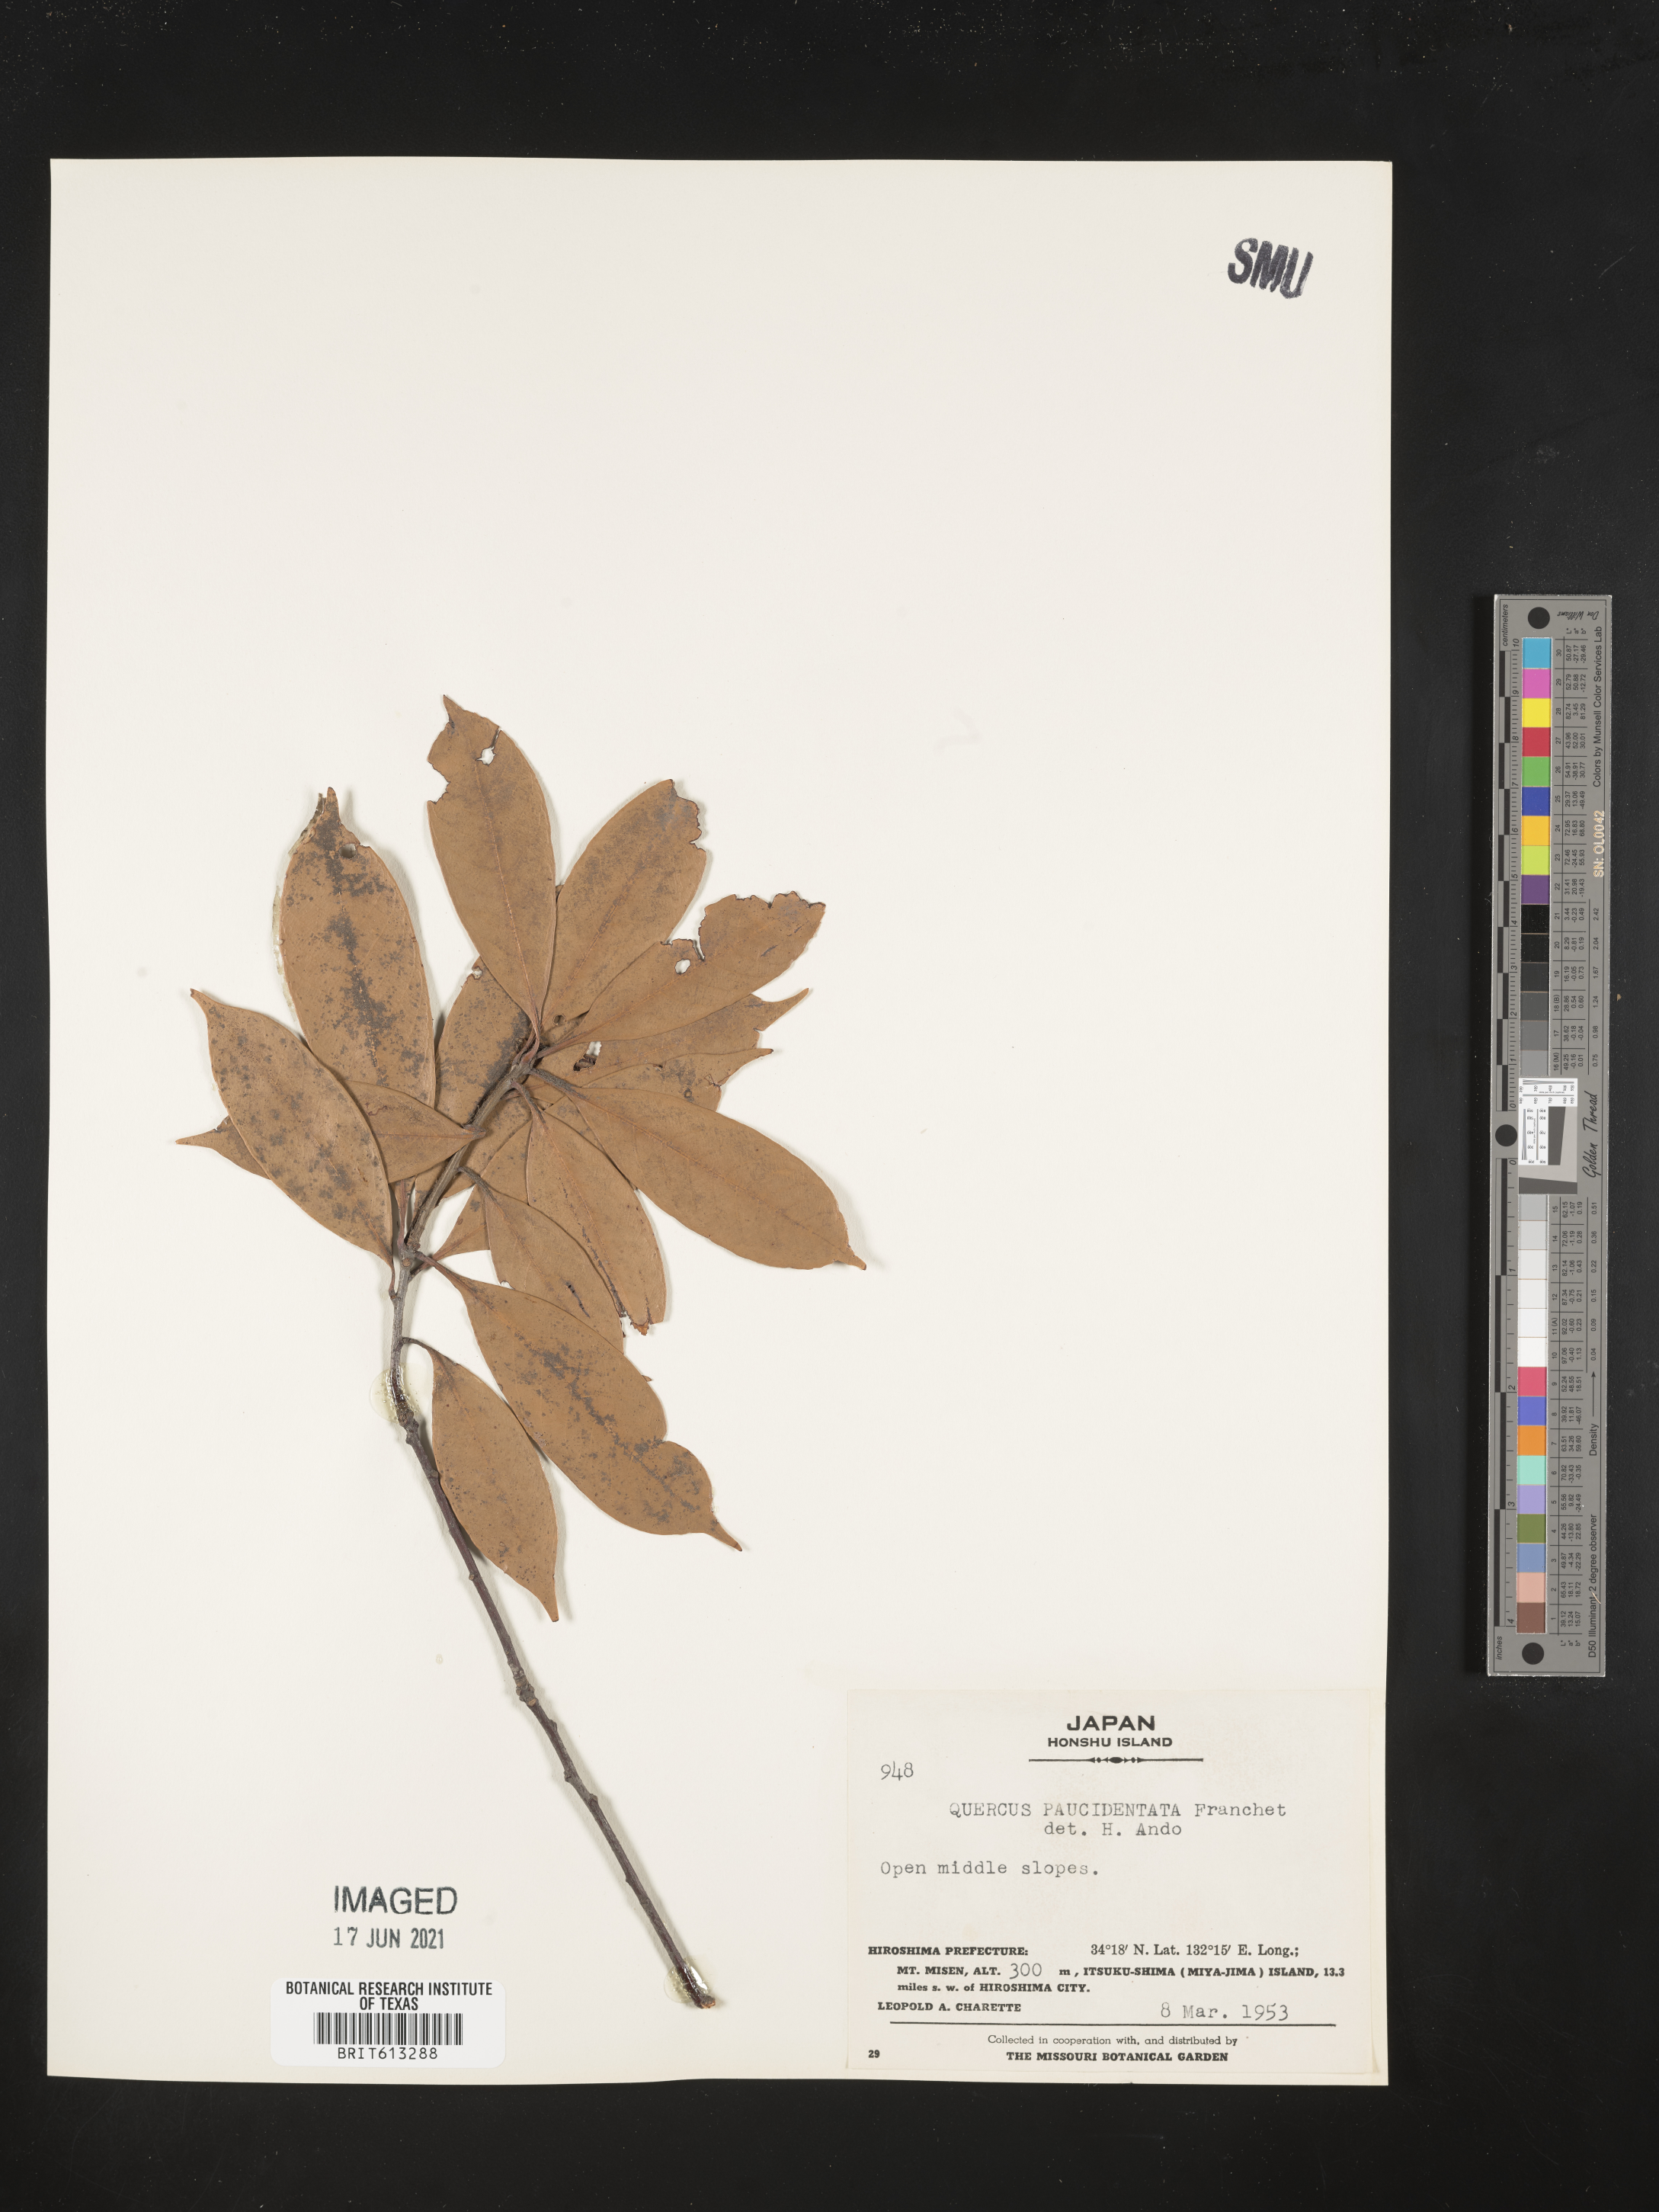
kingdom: Plantae
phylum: Tracheophyta
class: Magnoliopsida
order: Fagales
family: Fagaceae
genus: Quercus
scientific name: Quercus sessilifolia
